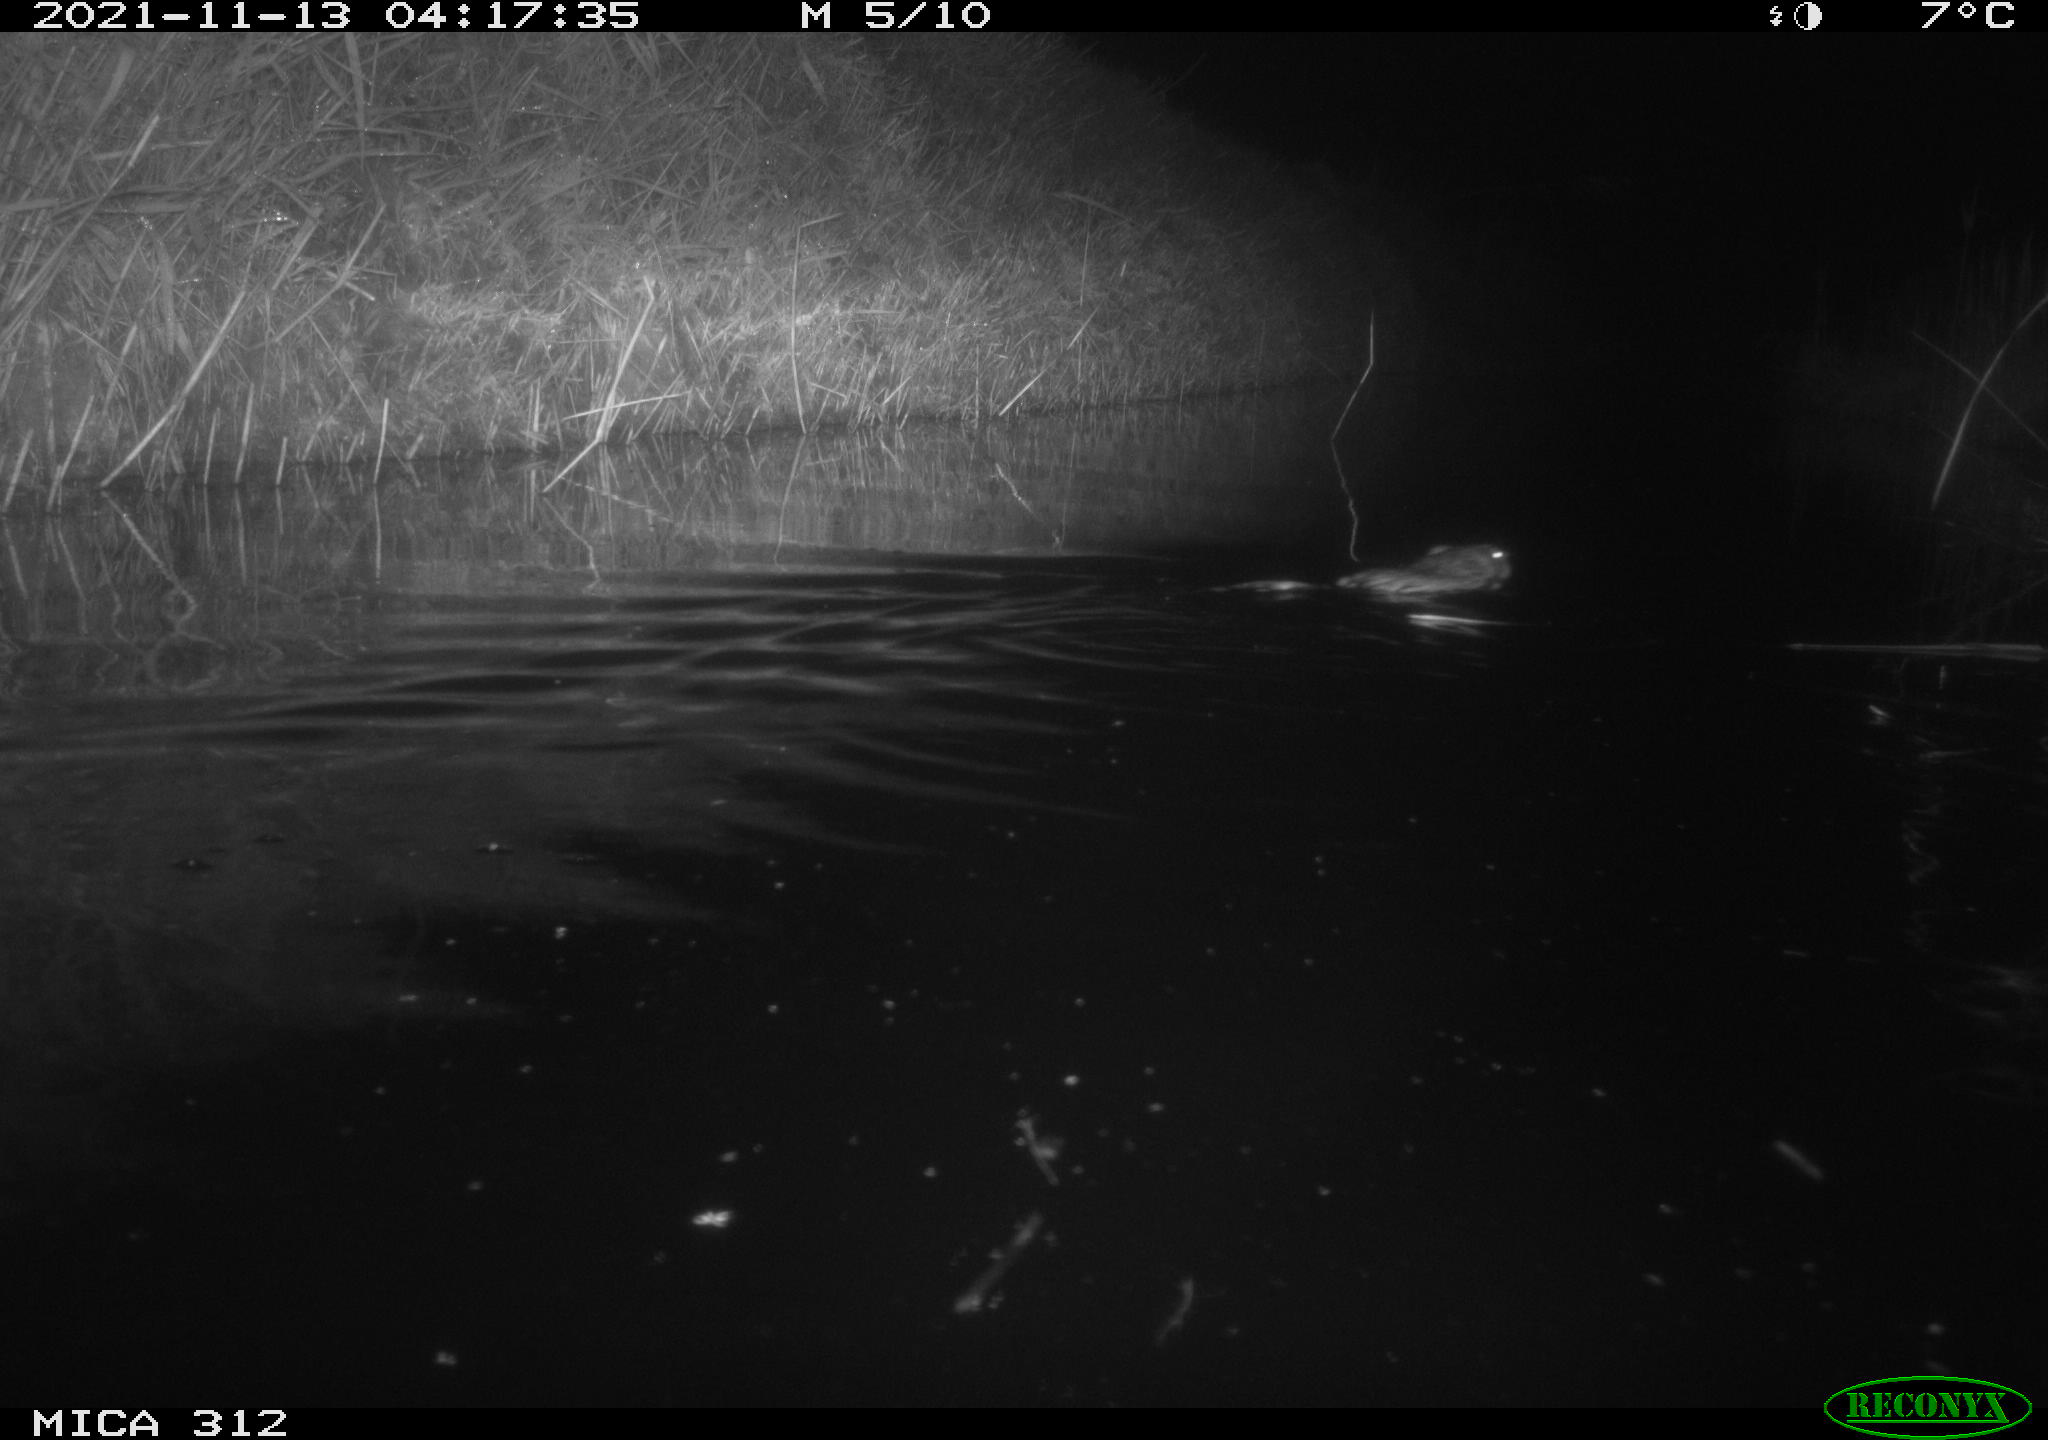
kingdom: Animalia
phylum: Chordata
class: Mammalia
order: Rodentia
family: Cricetidae
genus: Ondatra
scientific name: Ondatra zibethicus
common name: Muskrat
